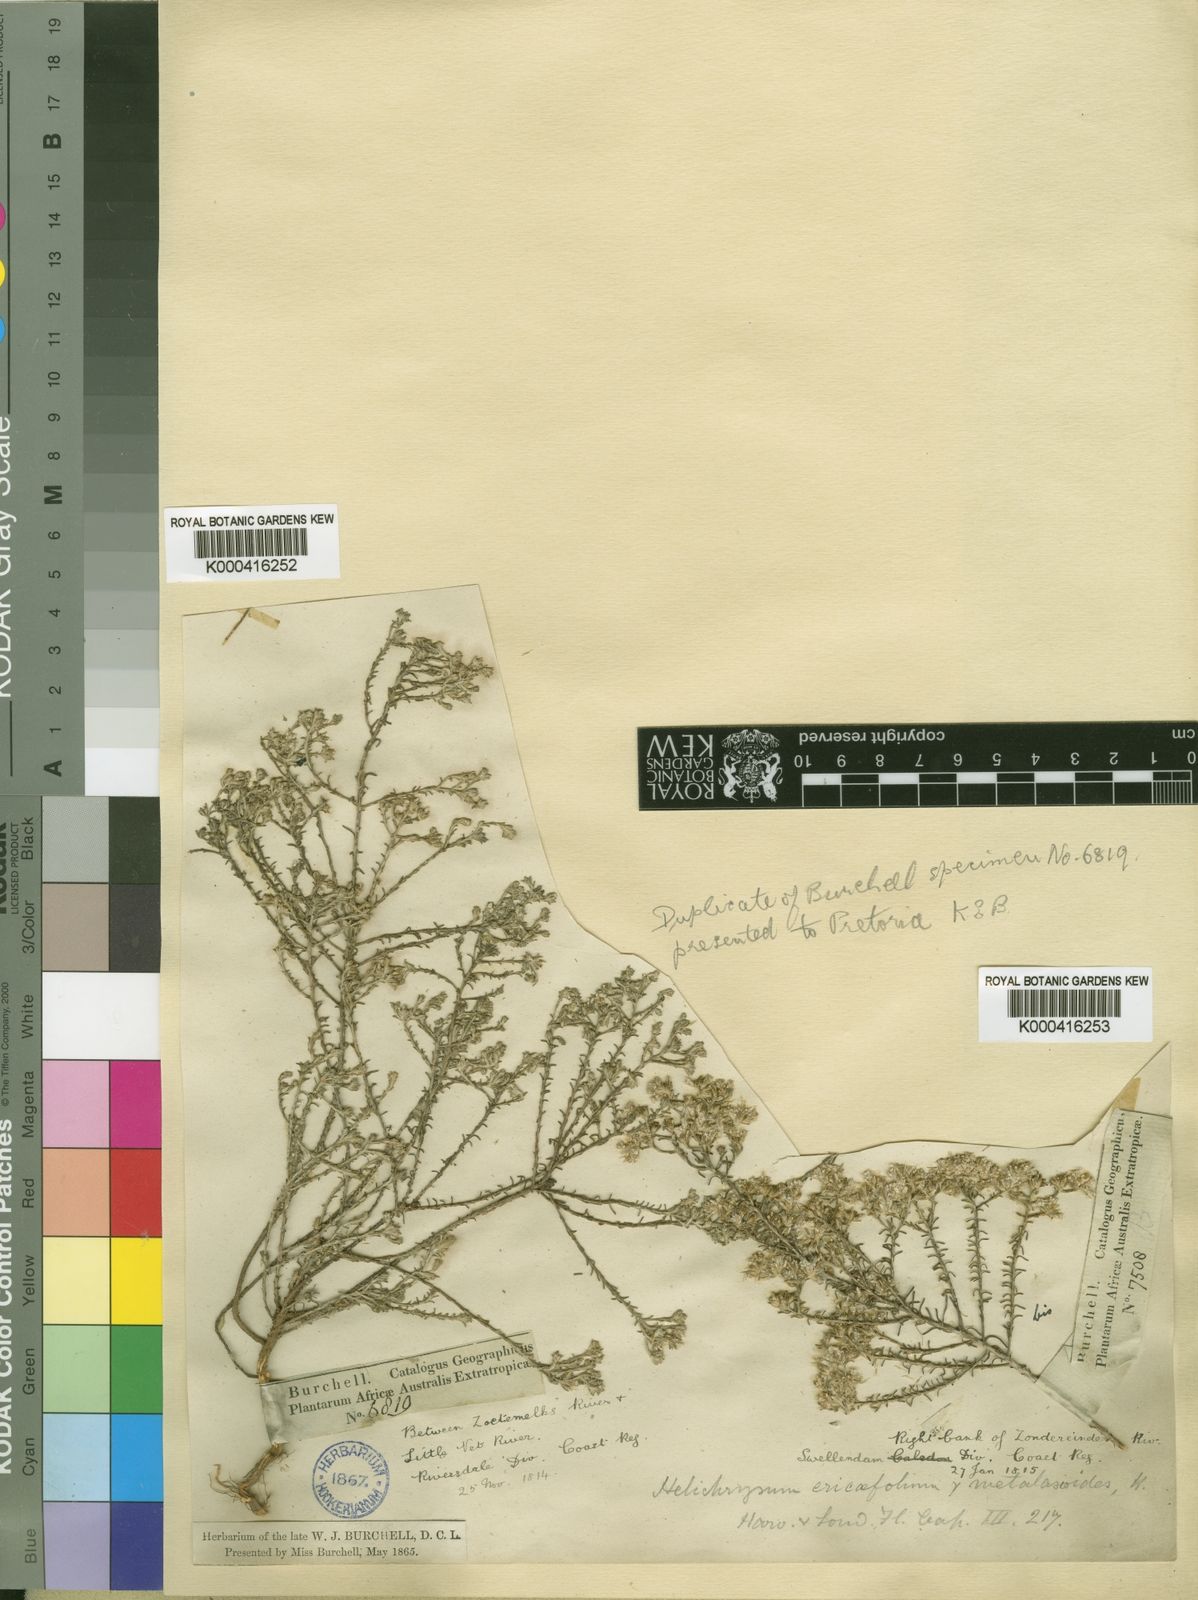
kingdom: Plantae
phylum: Tracheophyta
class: Magnoliopsida
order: Asterales
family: Asteraceae
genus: Helichrysum
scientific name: Helichrysum asperum
